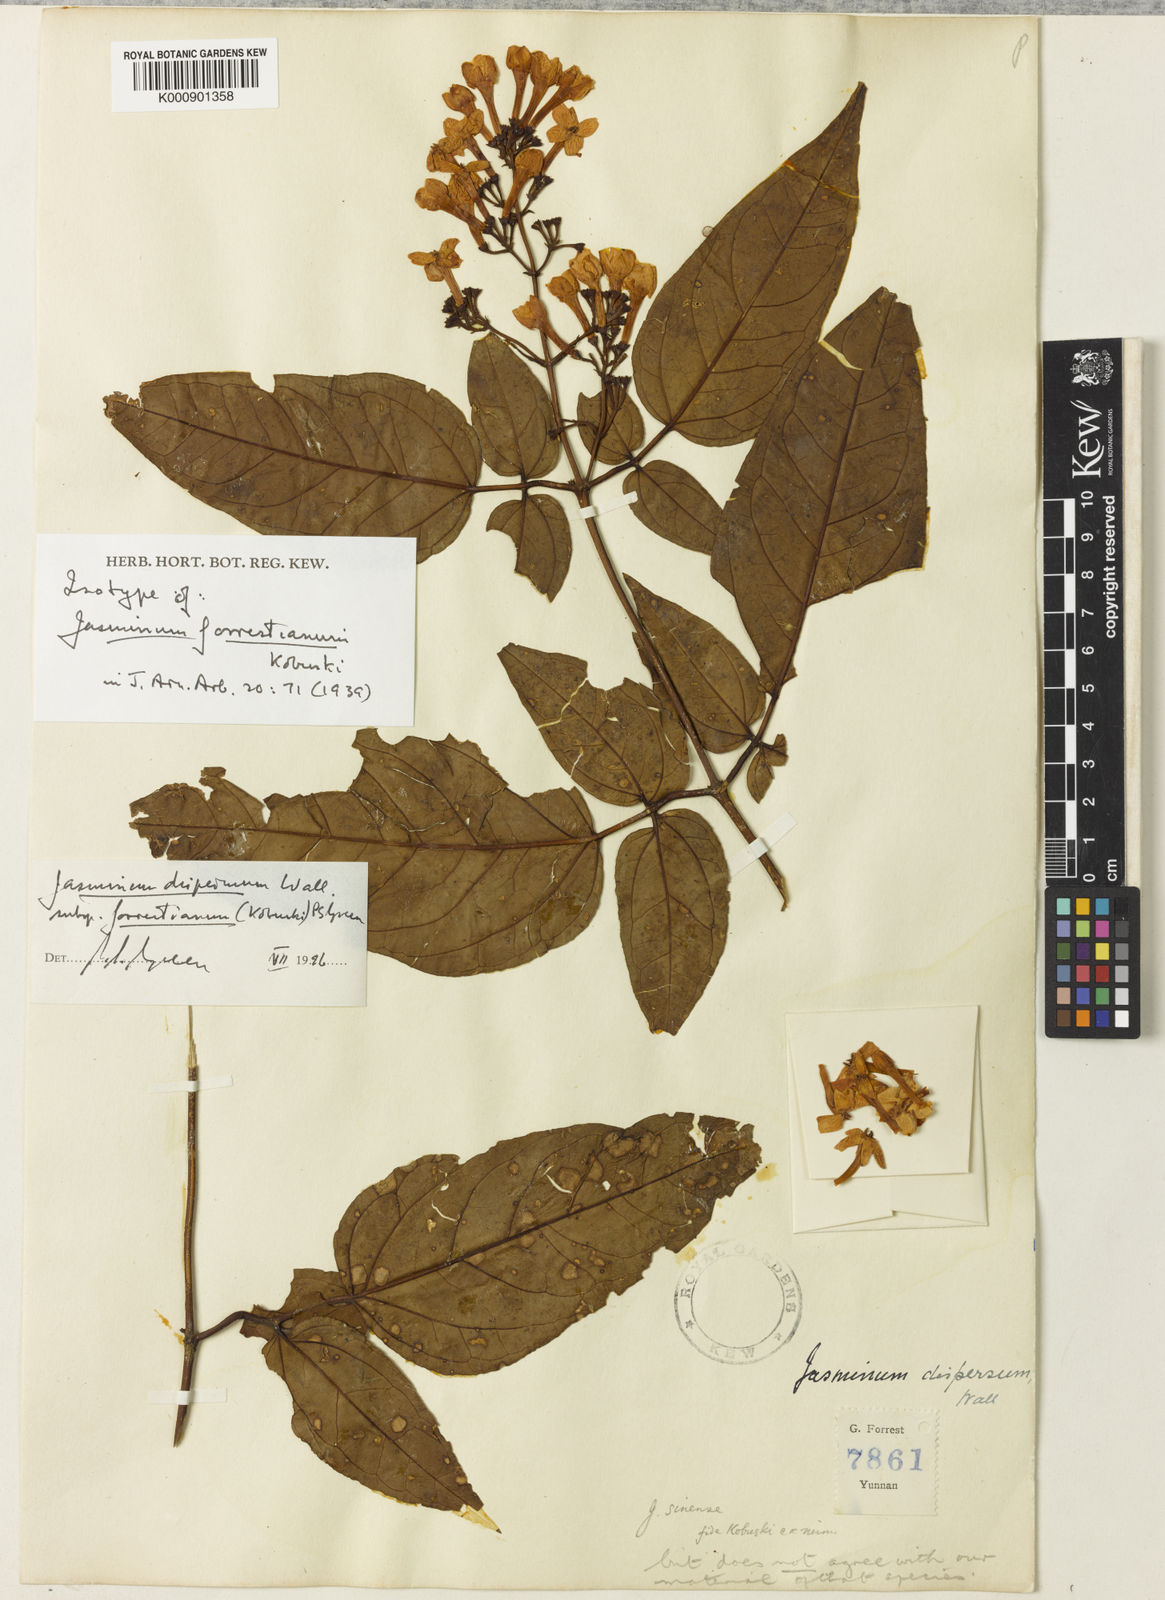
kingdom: Plantae
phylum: Tracheophyta
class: Magnoliopsida
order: Lamiales
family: Oleaceae
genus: Jasminum
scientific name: Jasminum dispermum
